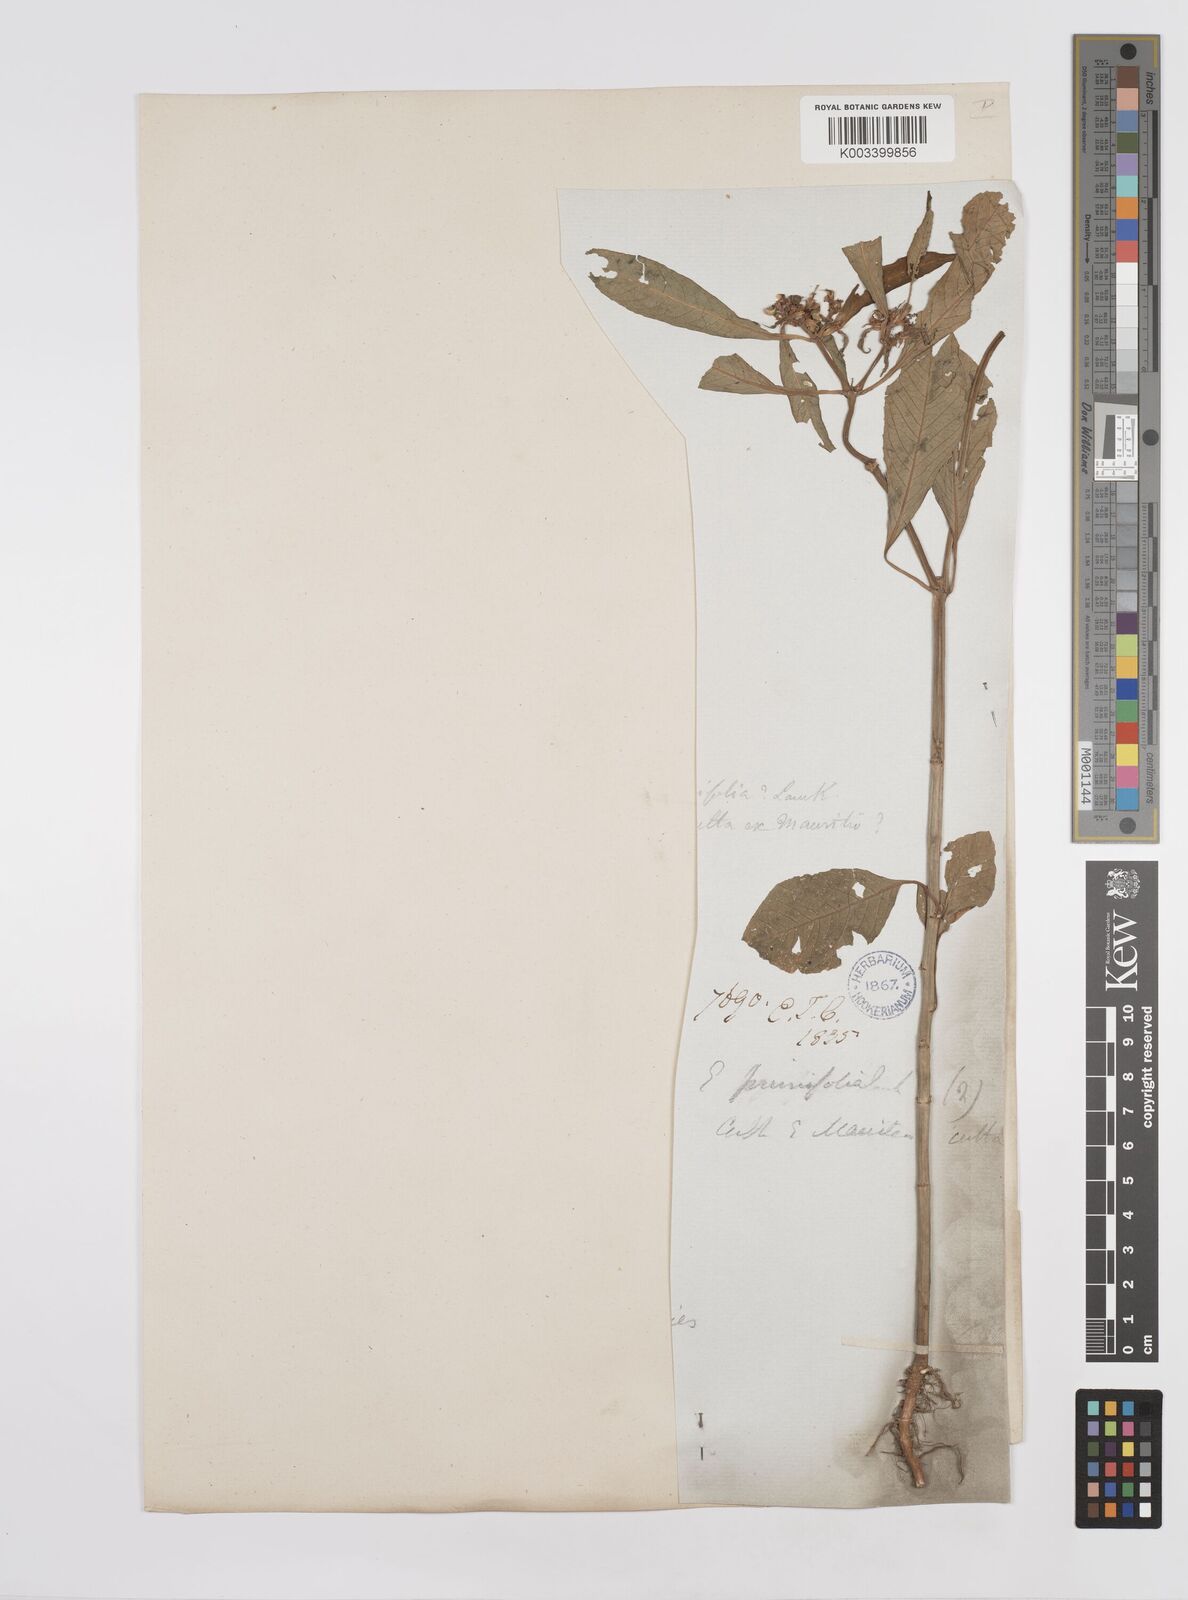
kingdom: Plantae
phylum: Tracheophyta
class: Magnoliopsida
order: Malpighiales
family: Euphorbiaceae
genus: Euphorbia
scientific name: Euphorbia heterophylla
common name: Mexican fireplant
